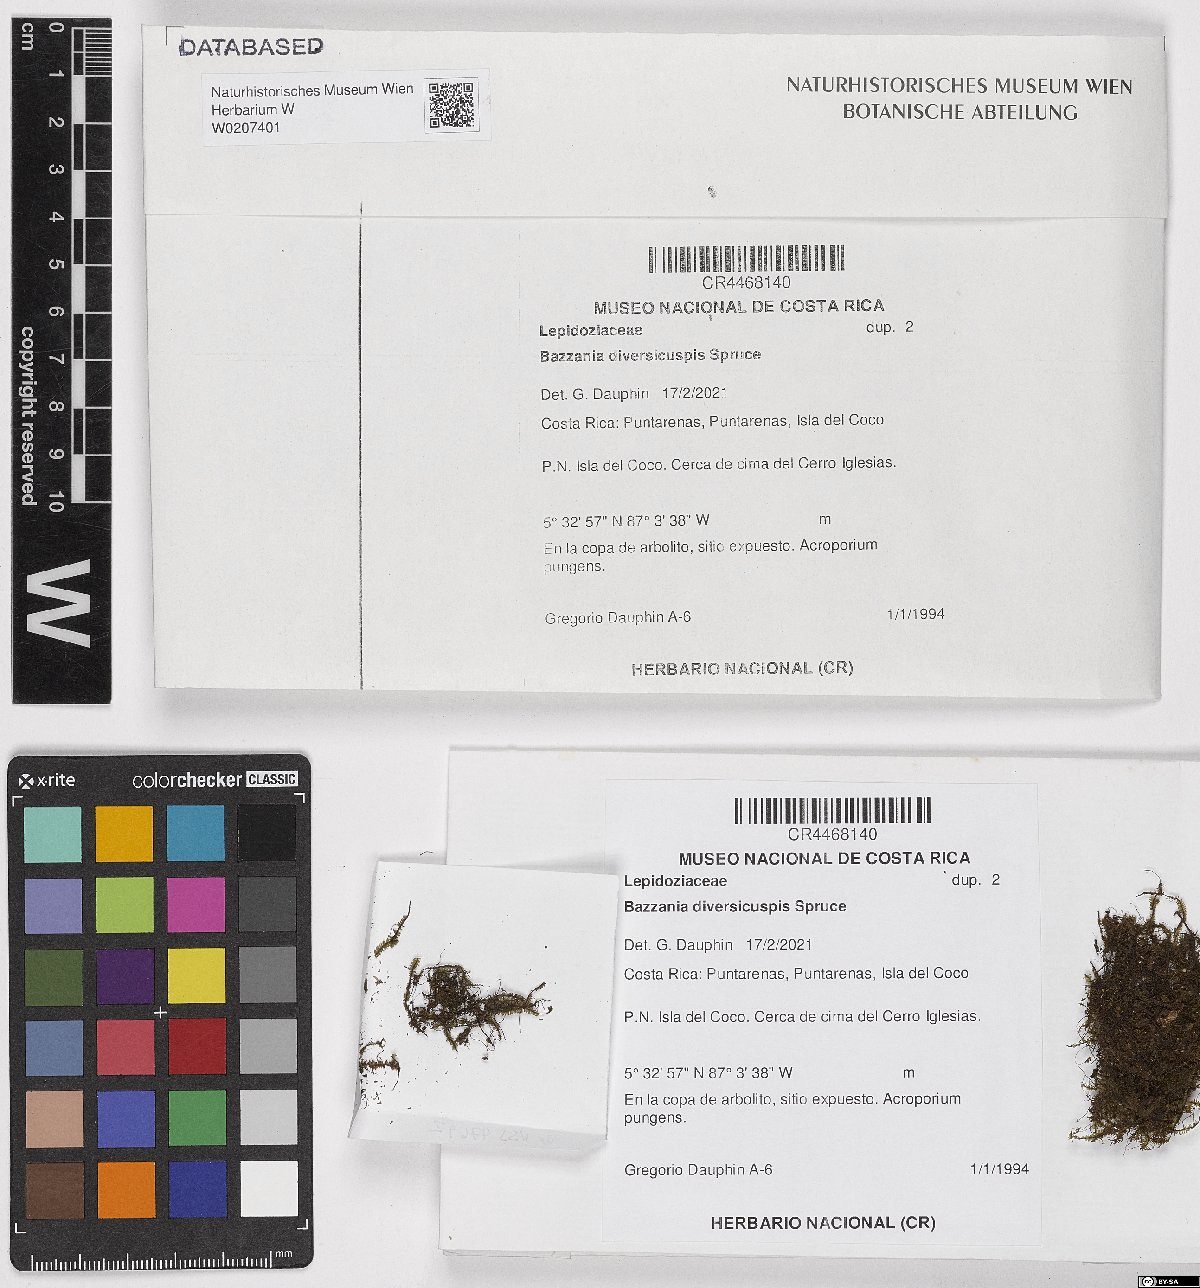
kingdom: Plantae
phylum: Marchantiophyta
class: Jungermanniopsida
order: Jungermanniales
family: Lepidoziaceae
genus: Bazzania
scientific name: Bazzania diversicuspis
